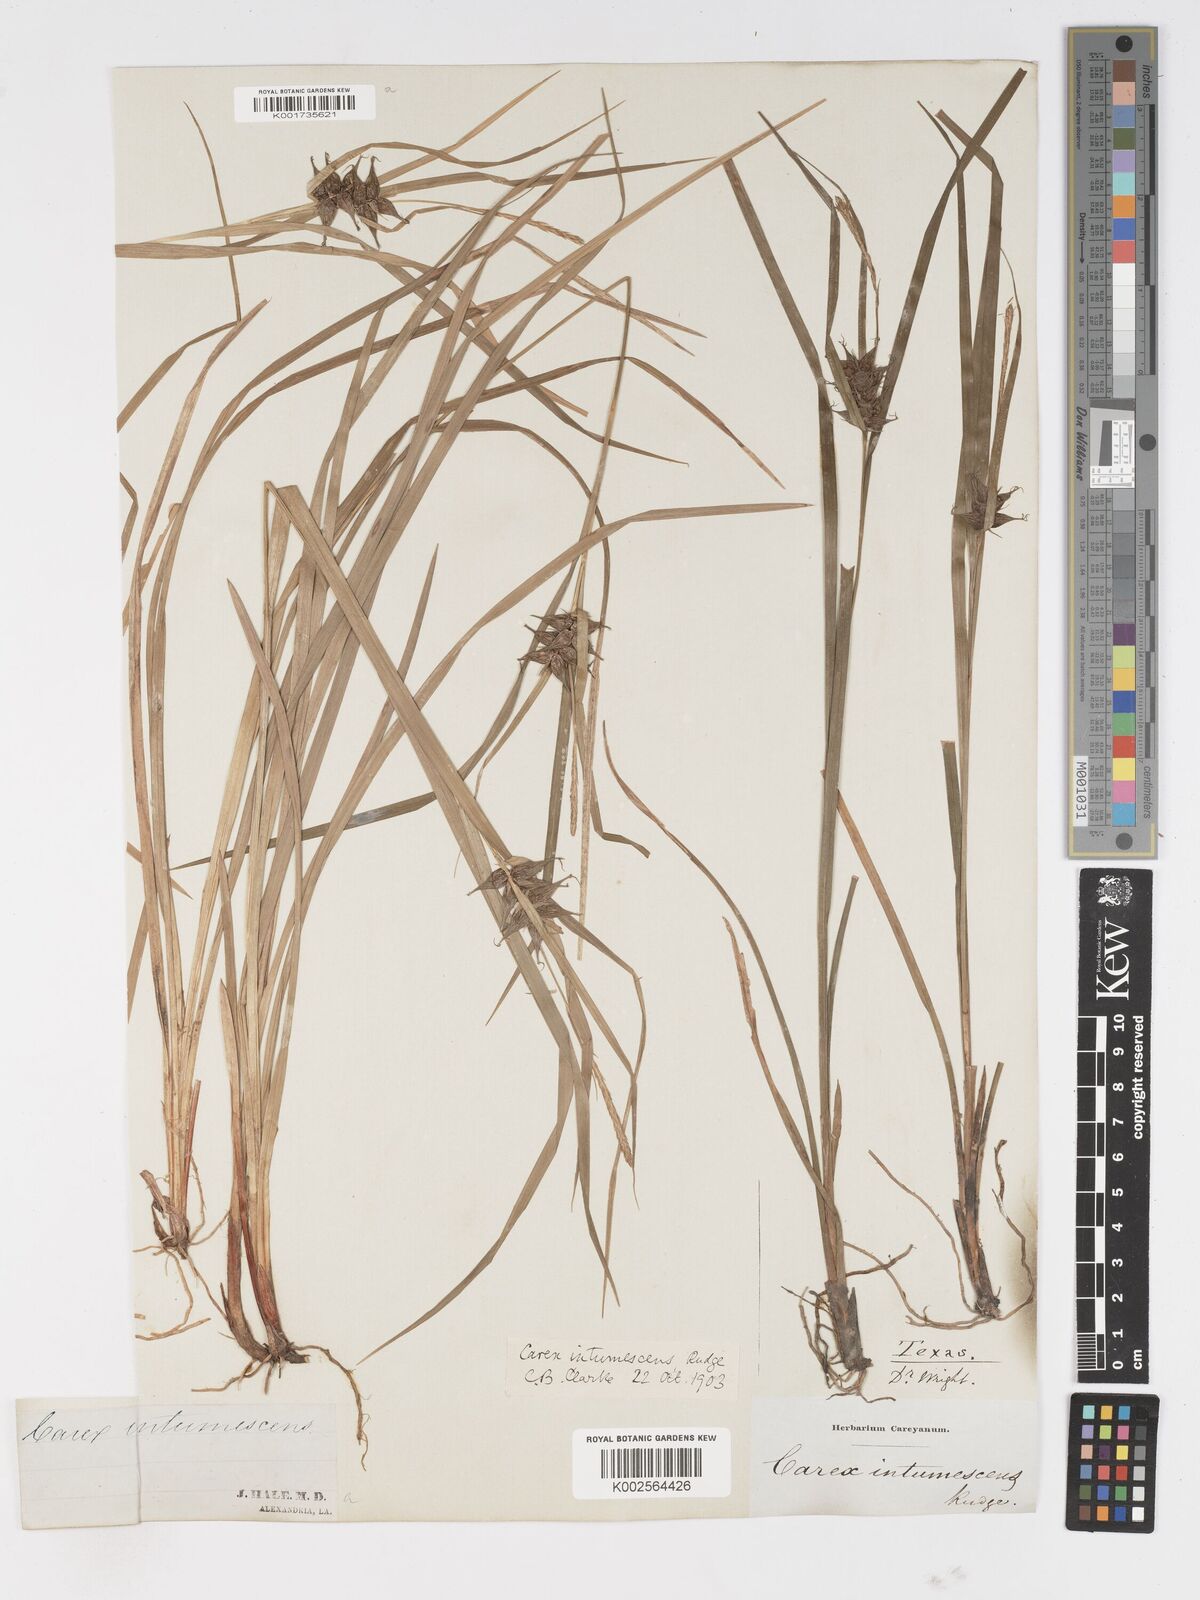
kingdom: Plantae
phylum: Tracheophyta
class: Liliopsida
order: Poales
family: Cyperaceae
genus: Carex
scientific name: Carex intumescens
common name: Greater bladder sedge
